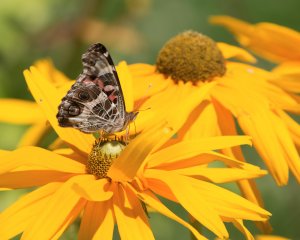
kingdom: Animalia
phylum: Arthropoda
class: Insecta
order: Lepidoptera
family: Nymphalidae
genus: Vanessa
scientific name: Vanessa virginiensis
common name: American Lady
